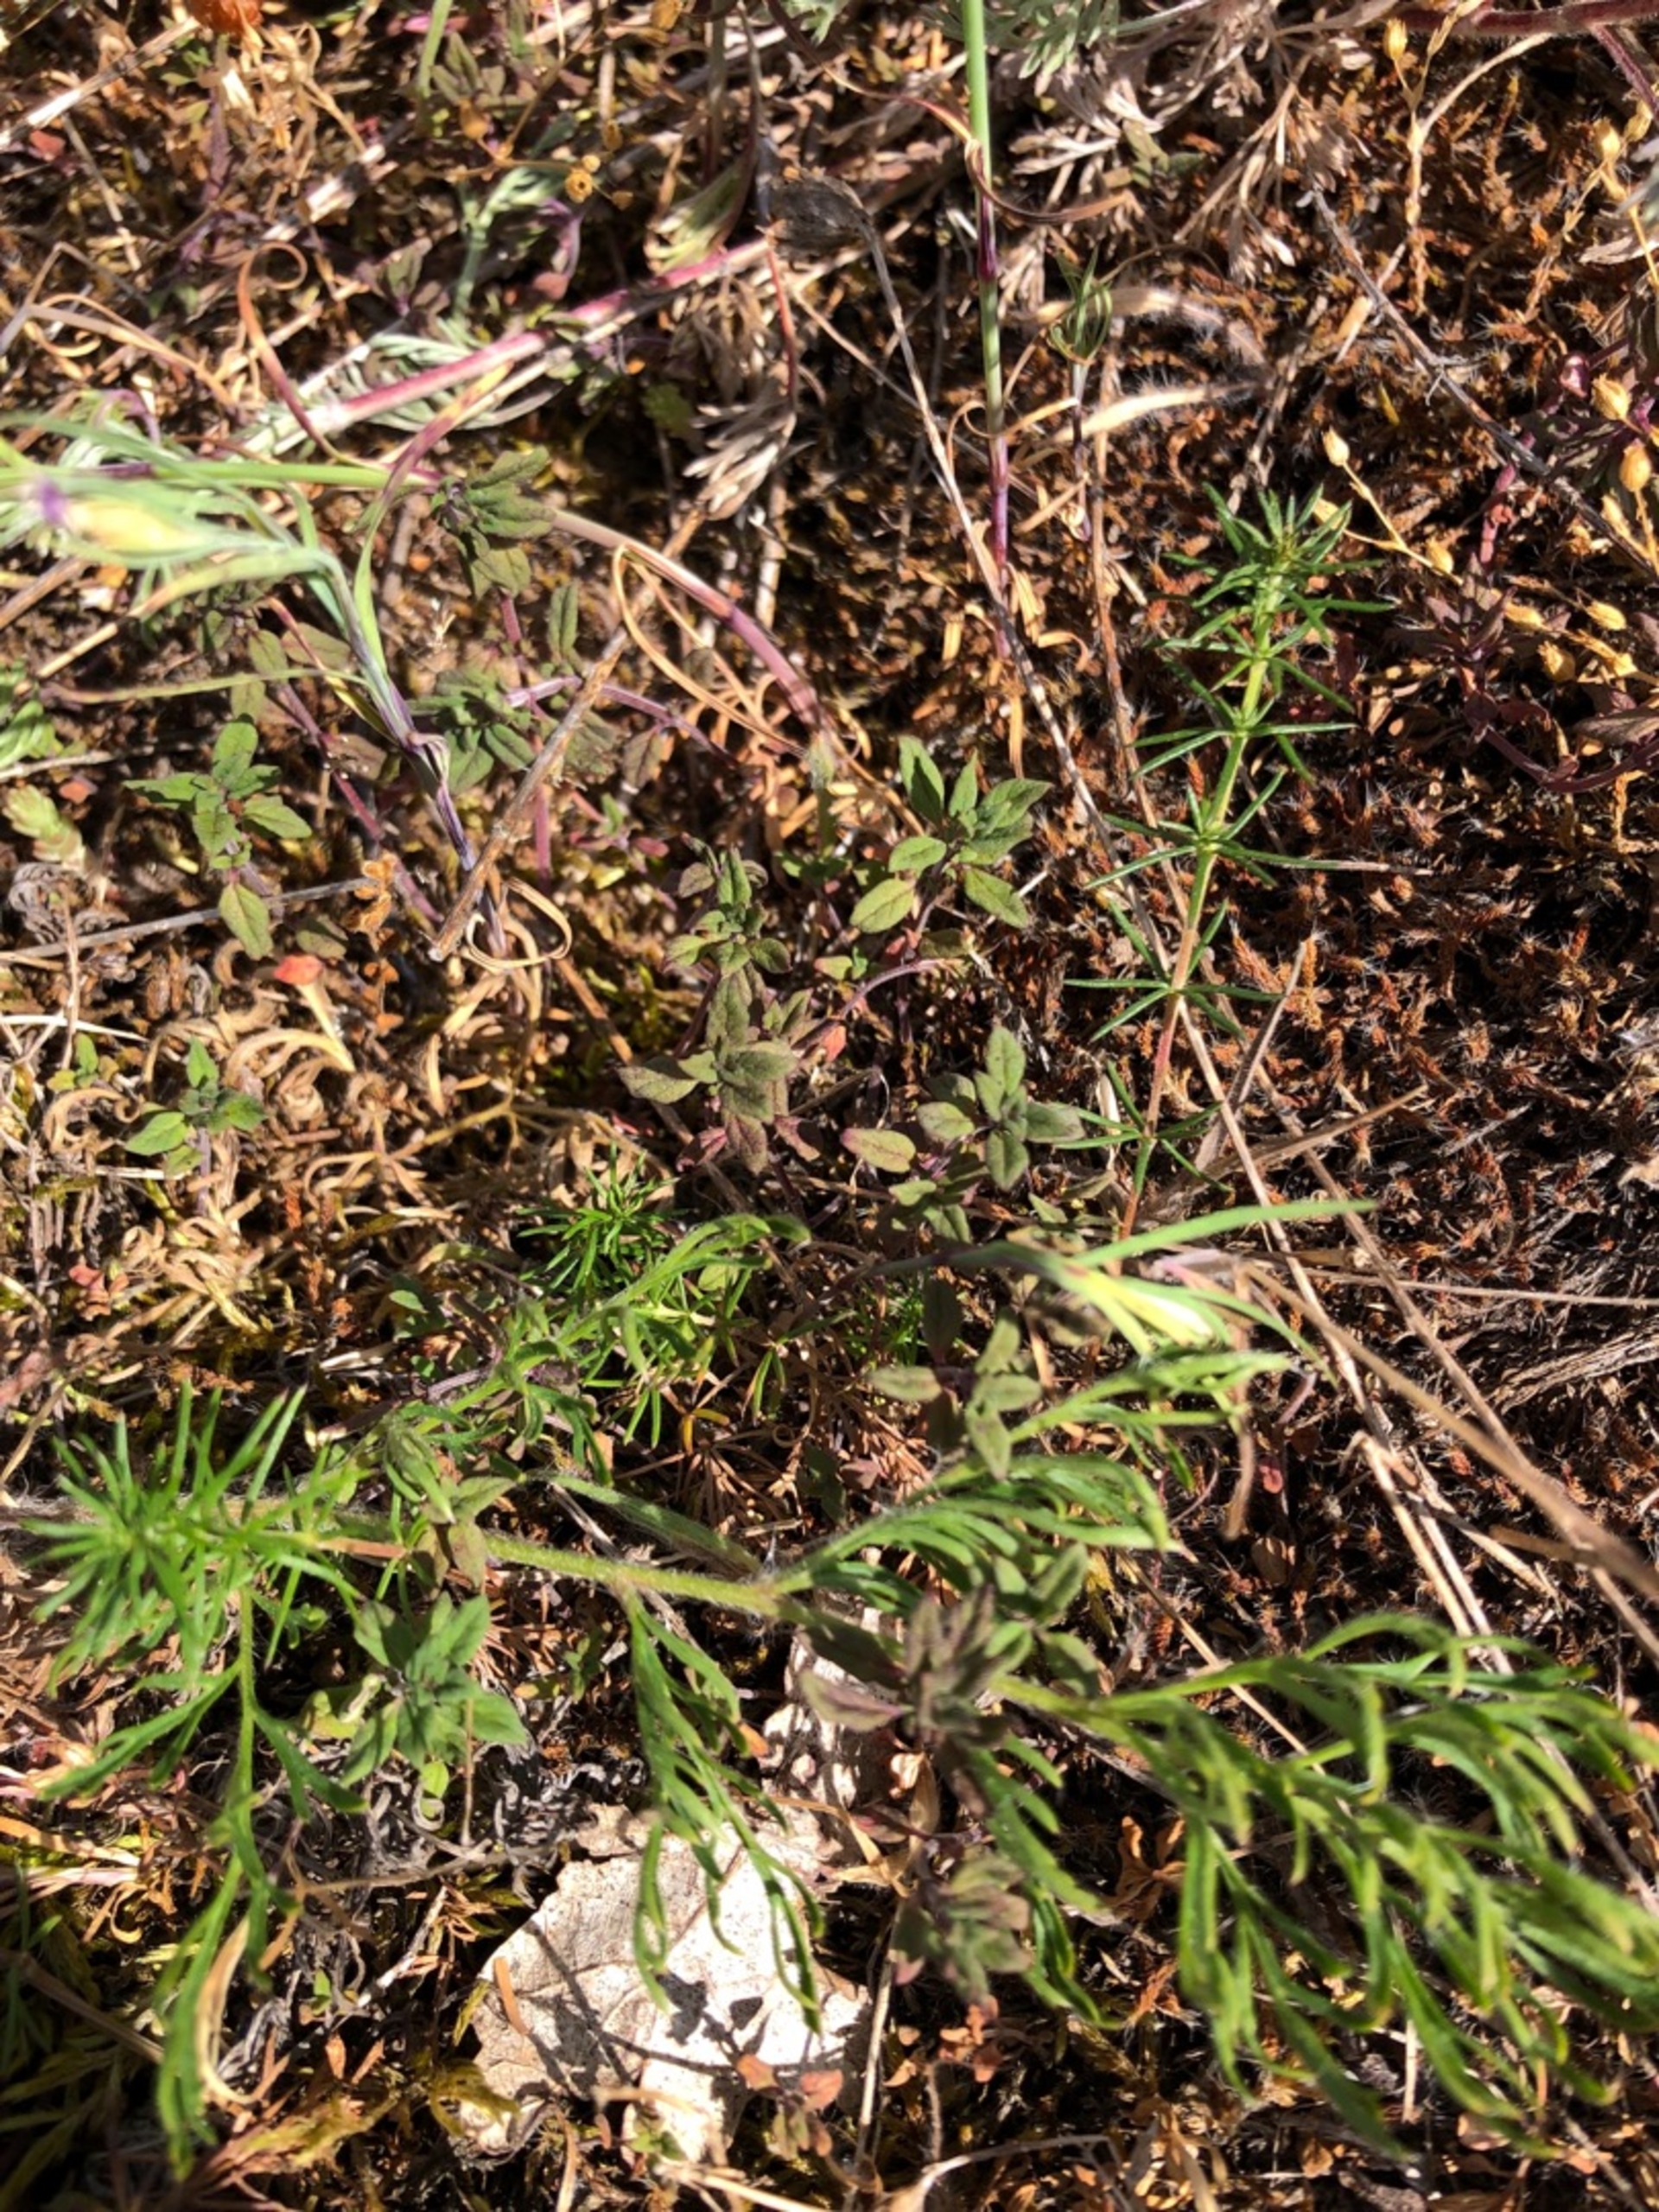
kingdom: Plantae
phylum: Tracheophyta
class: Magnoliopsida
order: Lamiales
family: Lamiaceae
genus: Clinopodium
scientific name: Clinopodium acinos
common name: Voldtimian
